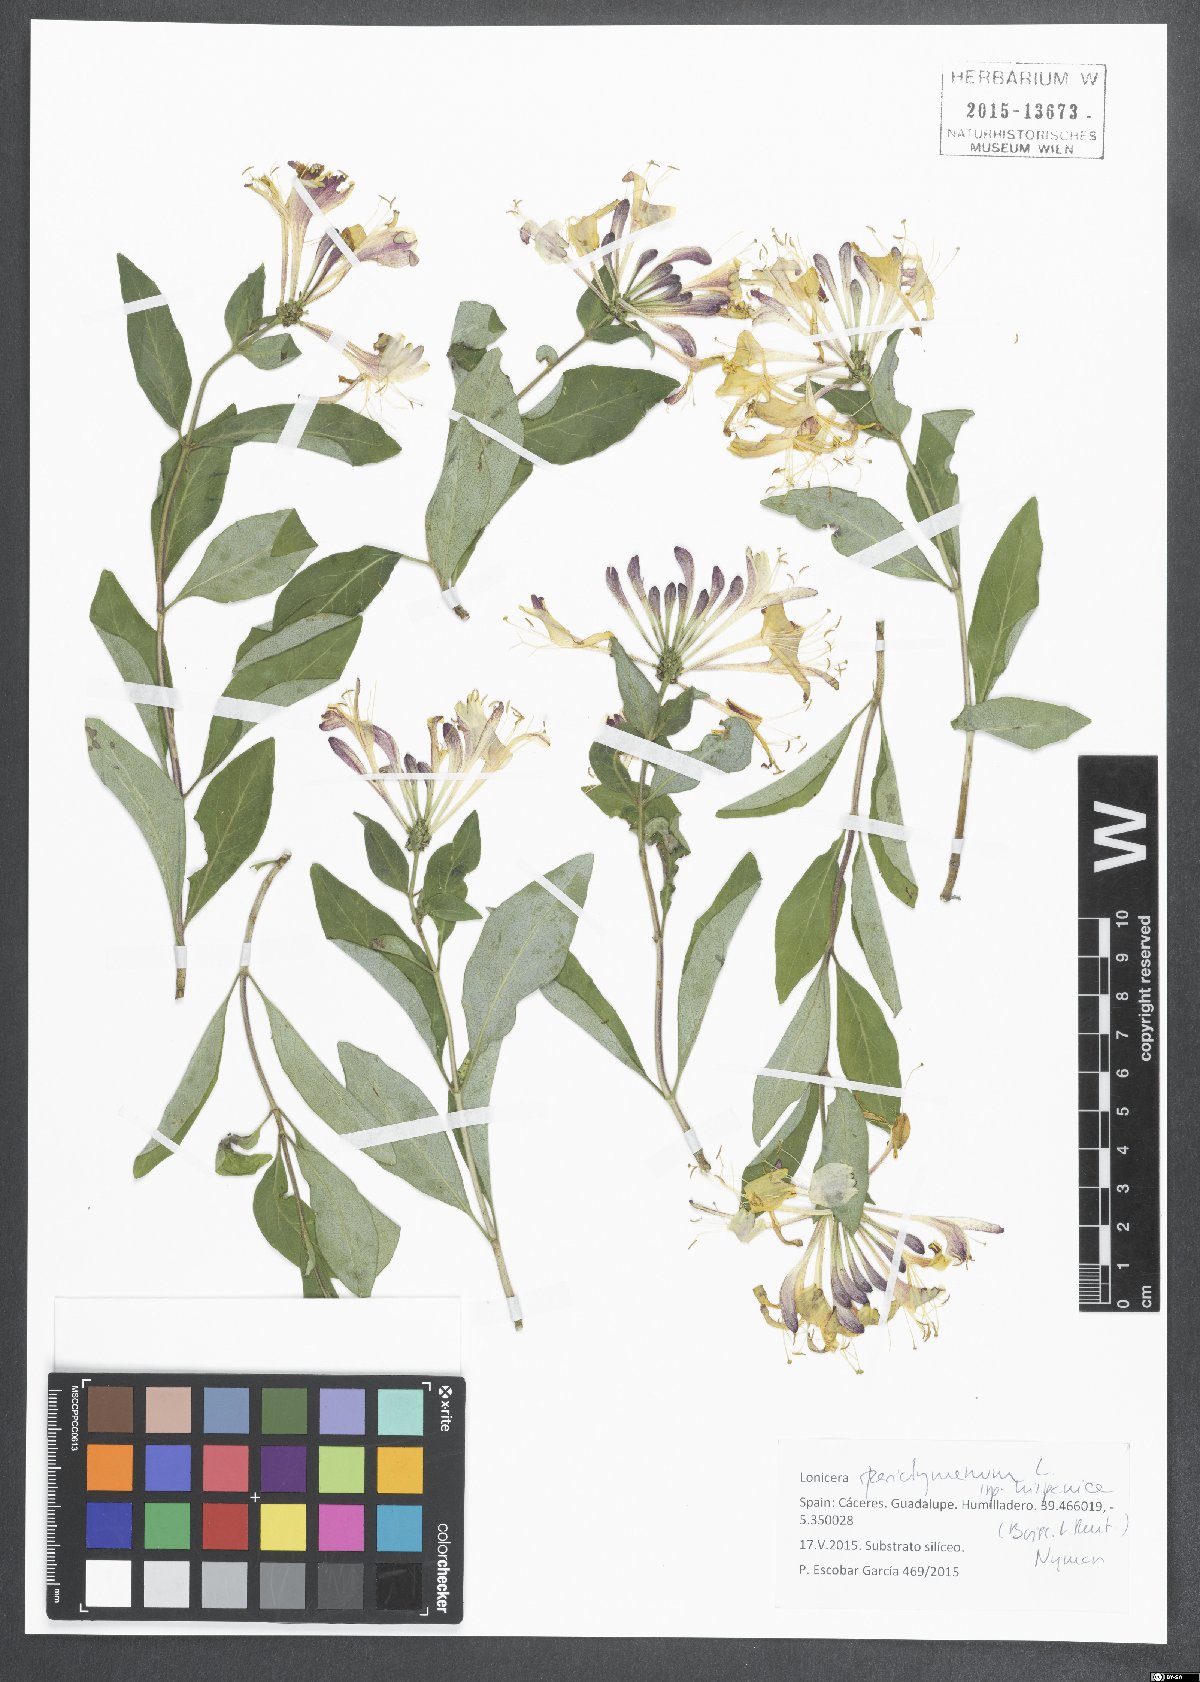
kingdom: Plantae
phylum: Tracheophyta
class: Magnoliopsida
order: Dipsacales
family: Caprifoliaceae
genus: Lonicera
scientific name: Lonicera periclymenum
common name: European honeysuckle
